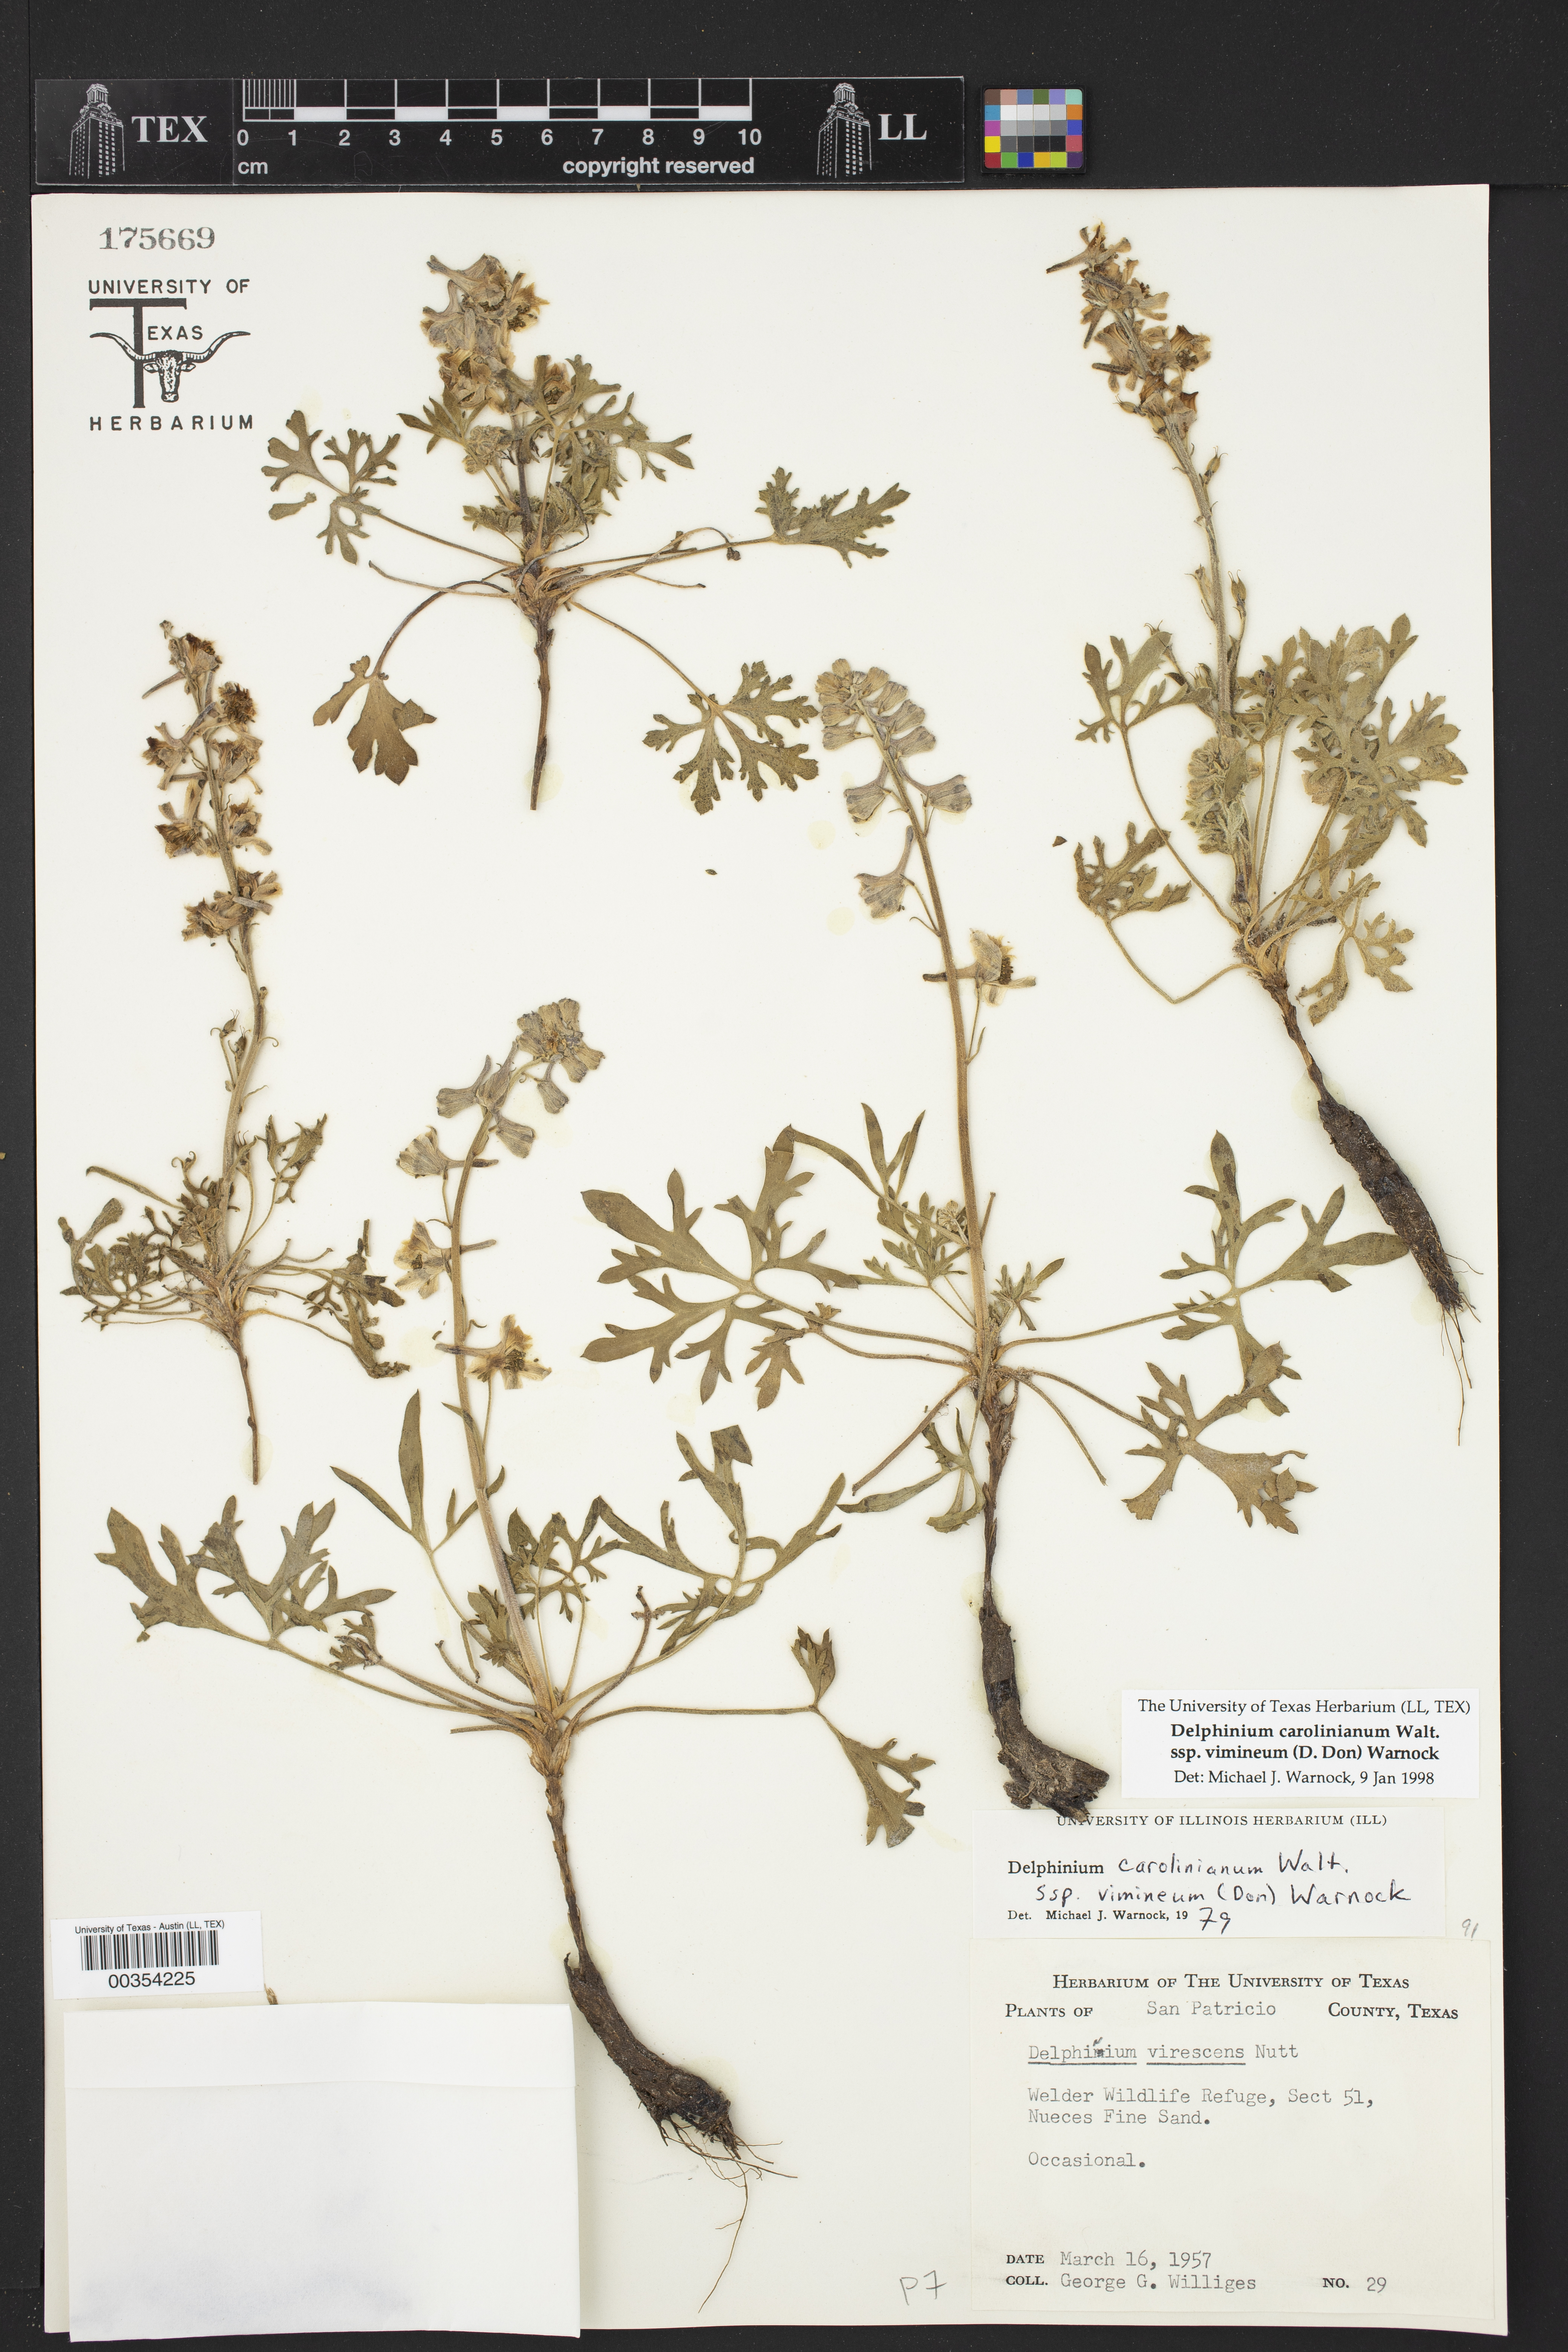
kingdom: Plantae
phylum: Tracheophyta
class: Magnoliopsida
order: Ranunculales
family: Ranunculaceae
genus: Delphinium
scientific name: Delphinium carolinianum
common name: Carolina larkspur
